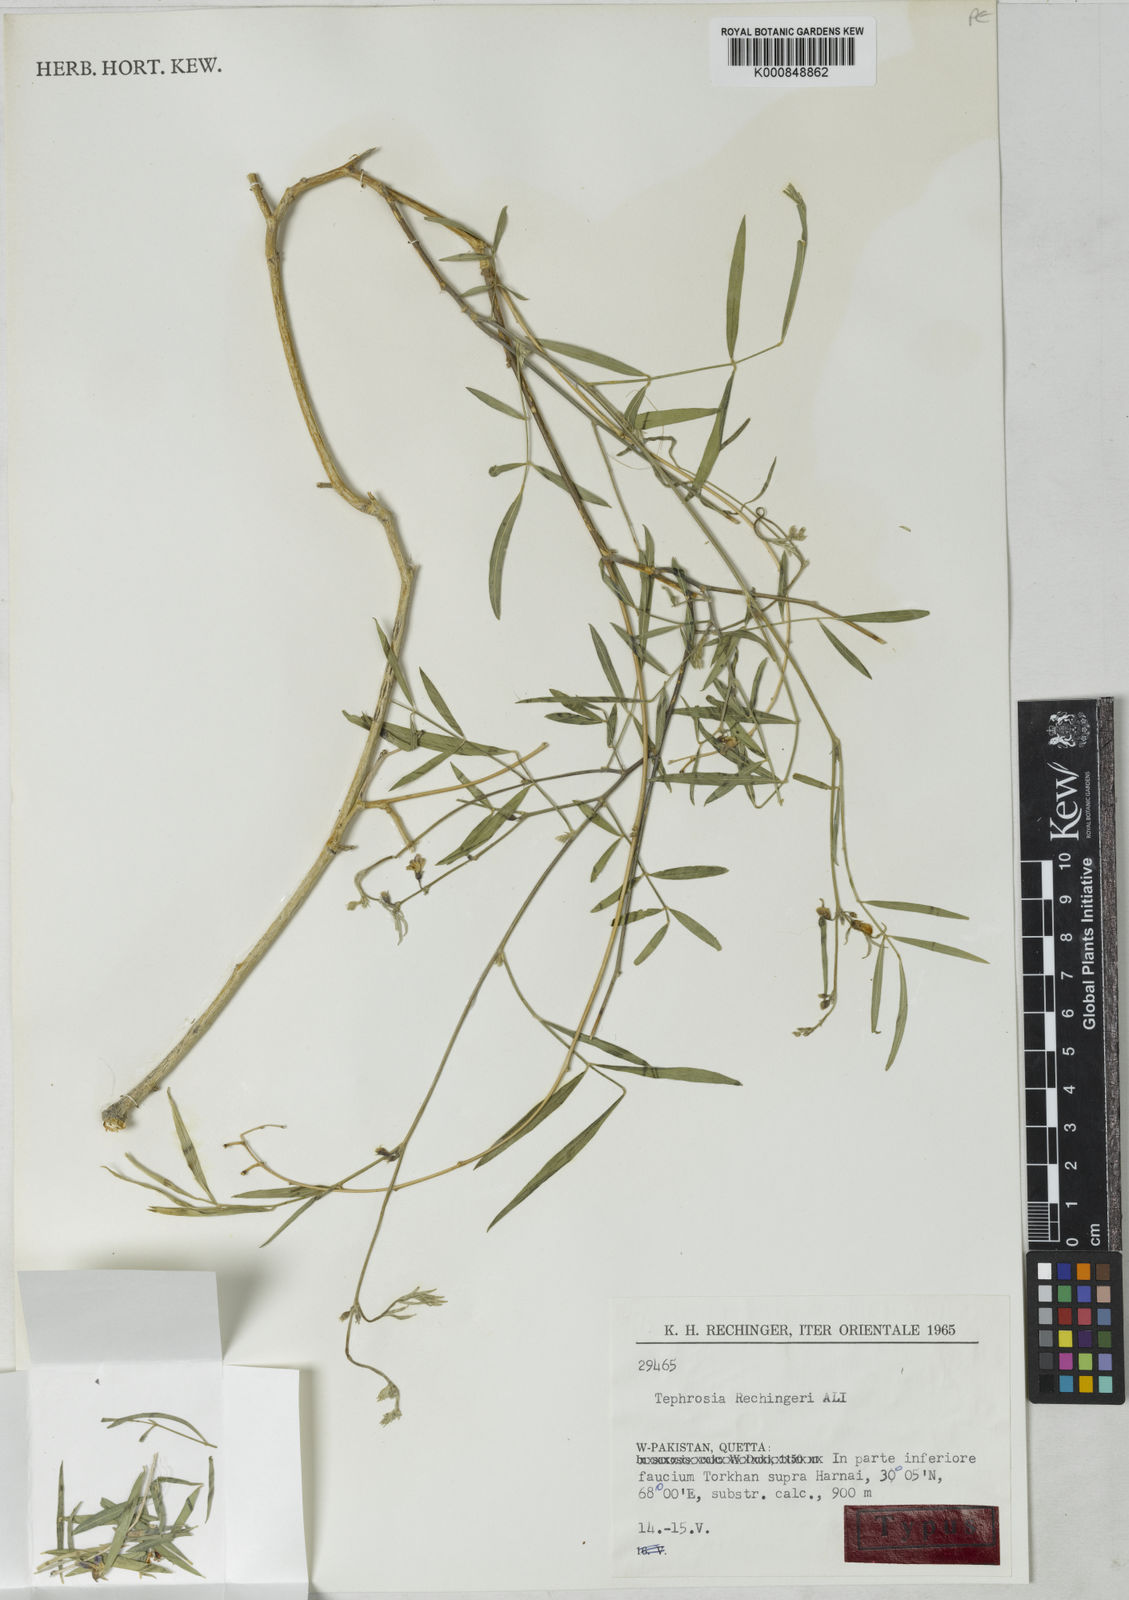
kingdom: Plantae
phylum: Tracheophyta
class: Magnoliopsida
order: Fabales
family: Fabaceae
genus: Tephrosia
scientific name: Tephrosia rechingeri
